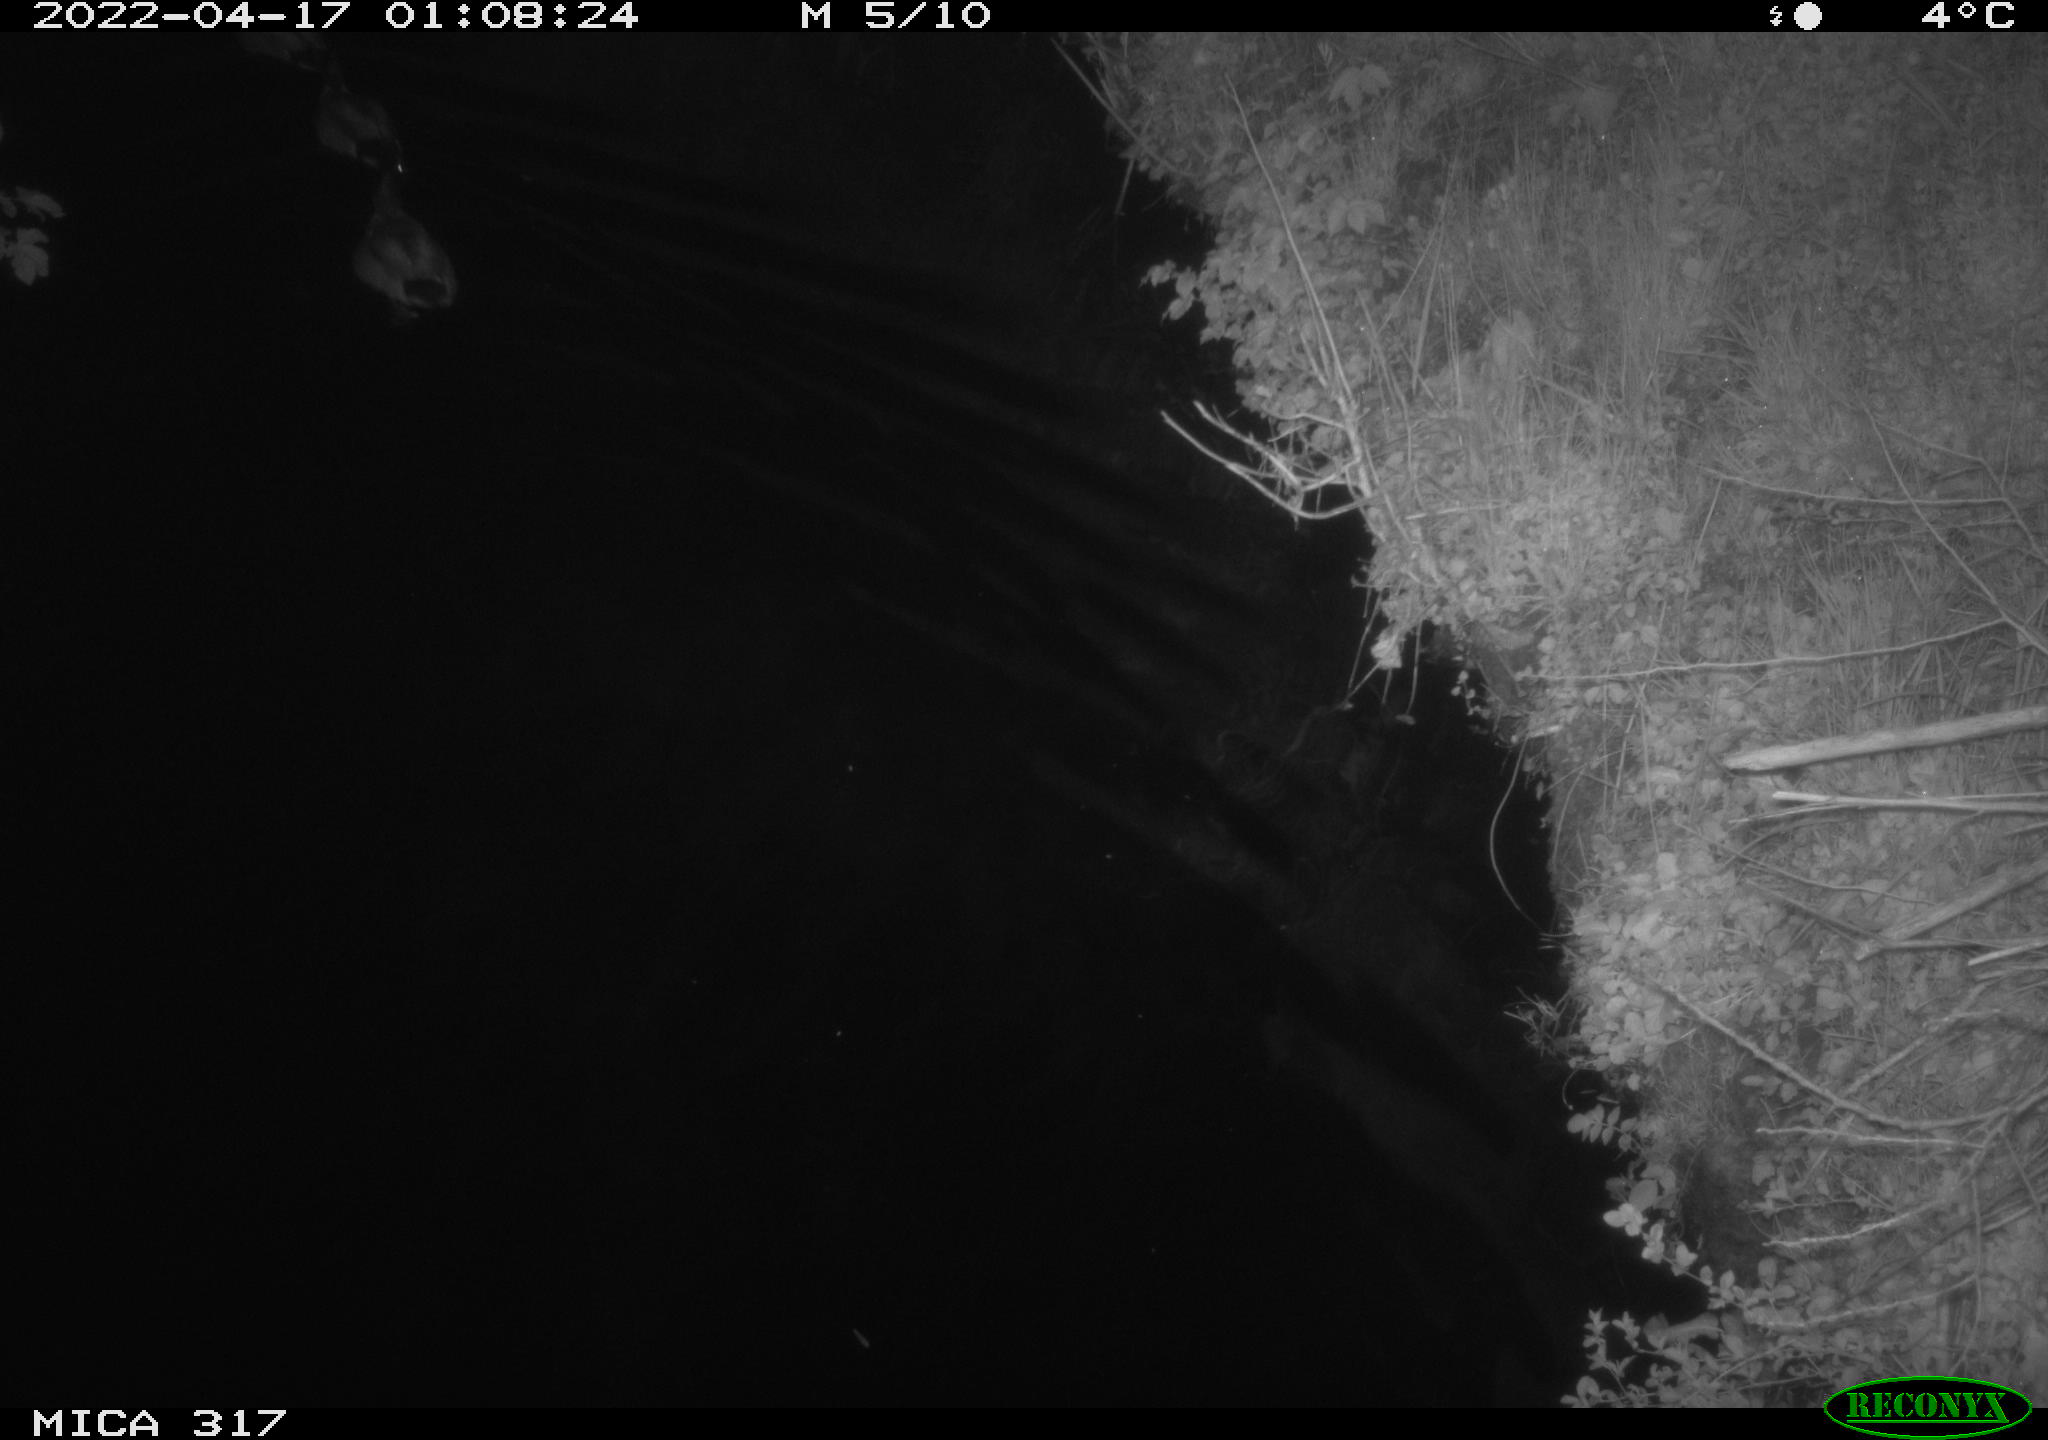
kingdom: Animalia
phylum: Chordata
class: Aves
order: Anseriformes
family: Anatidae
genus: Anas
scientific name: Anas platyrhynchos
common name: Mallard
